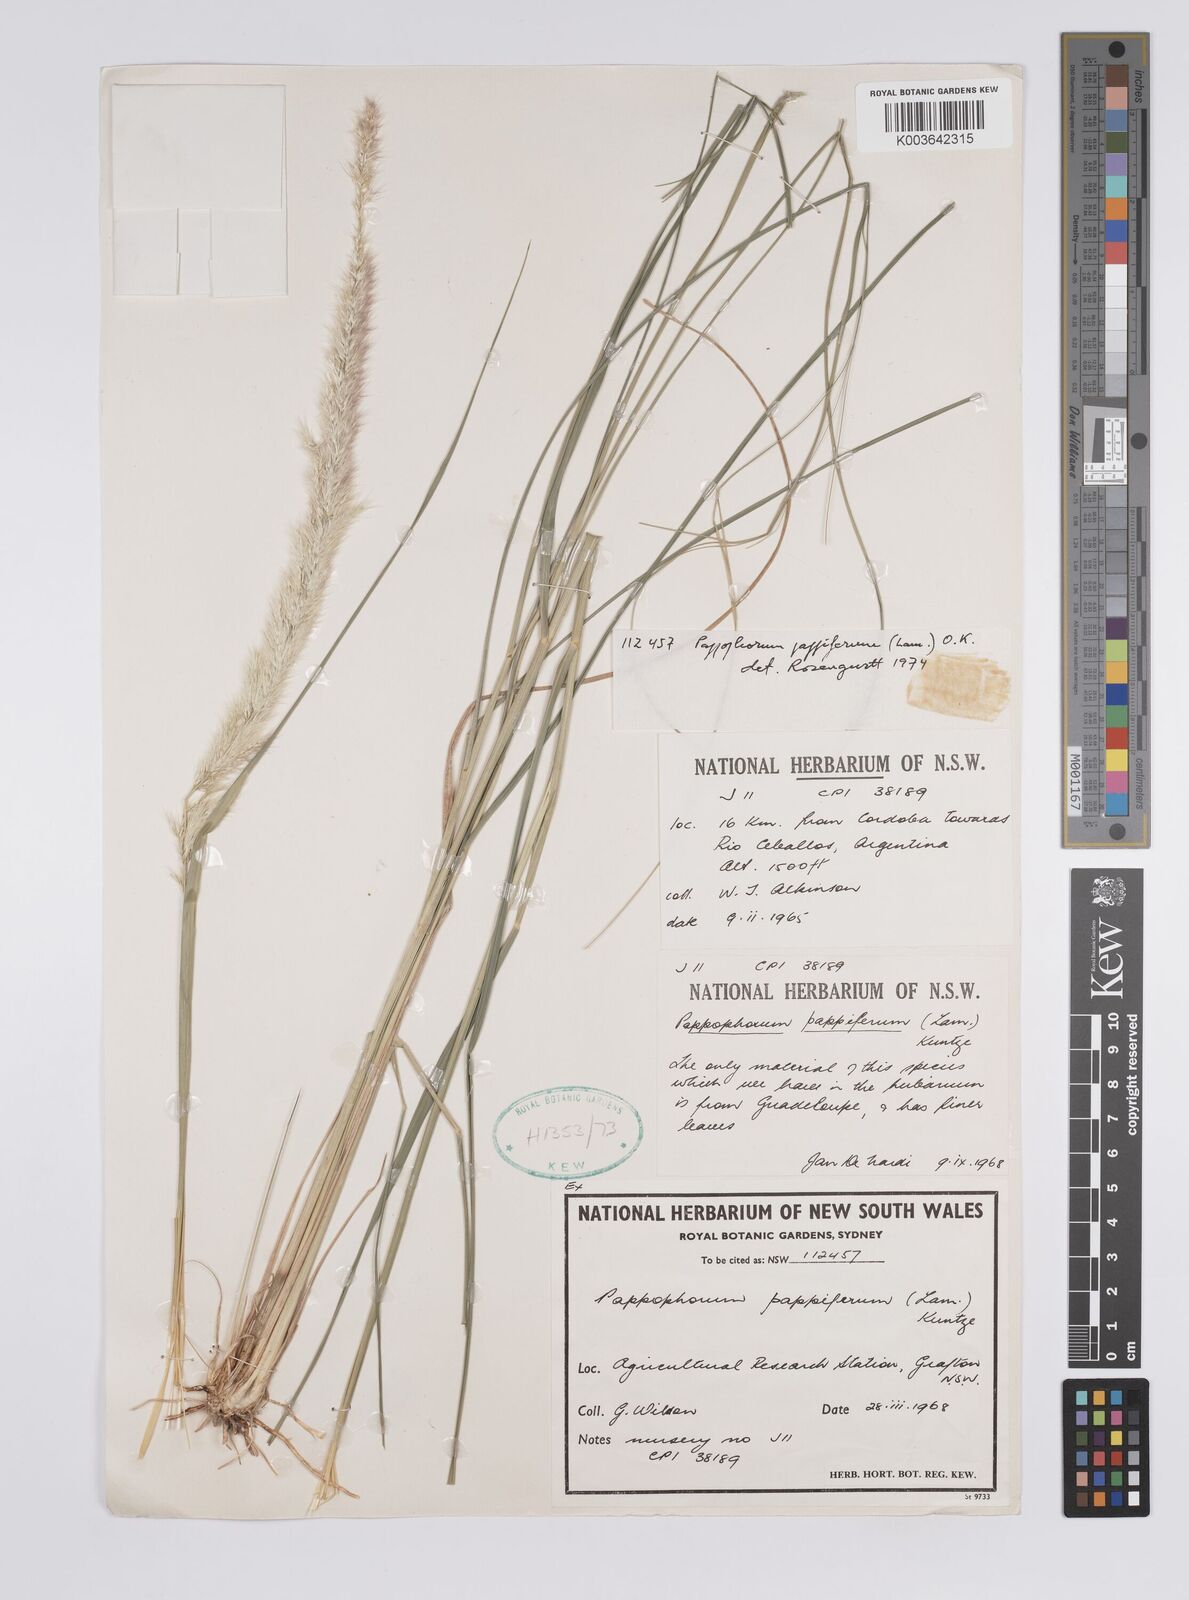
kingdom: Plantae
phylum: Tracheophyta
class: Liliopsida
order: Poales
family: Poaceae
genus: Pappophorum
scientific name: Pappophorum pappiferum
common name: Crabgrass
